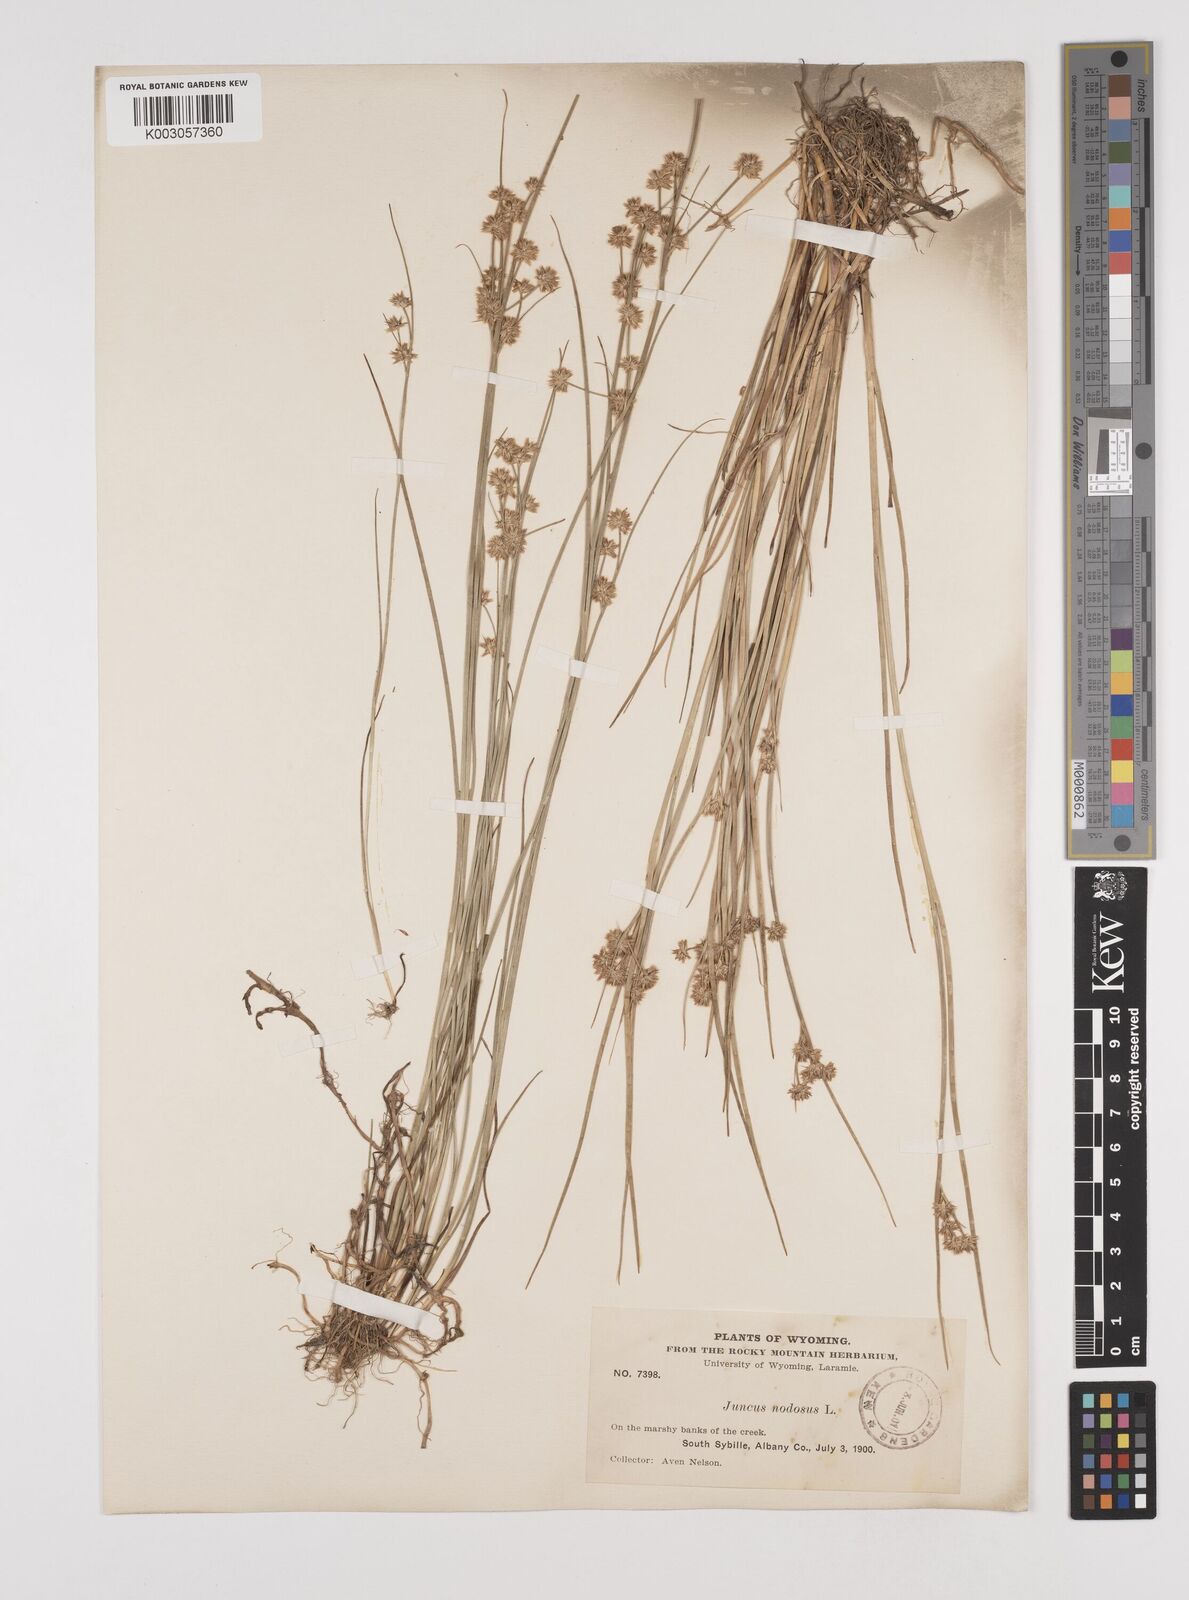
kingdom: Plantae
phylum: Tracheophyta
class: Liliopsida
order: Poales
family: Juncaceae
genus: Juncus
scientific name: Juncus nodosus
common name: Knotted rush
